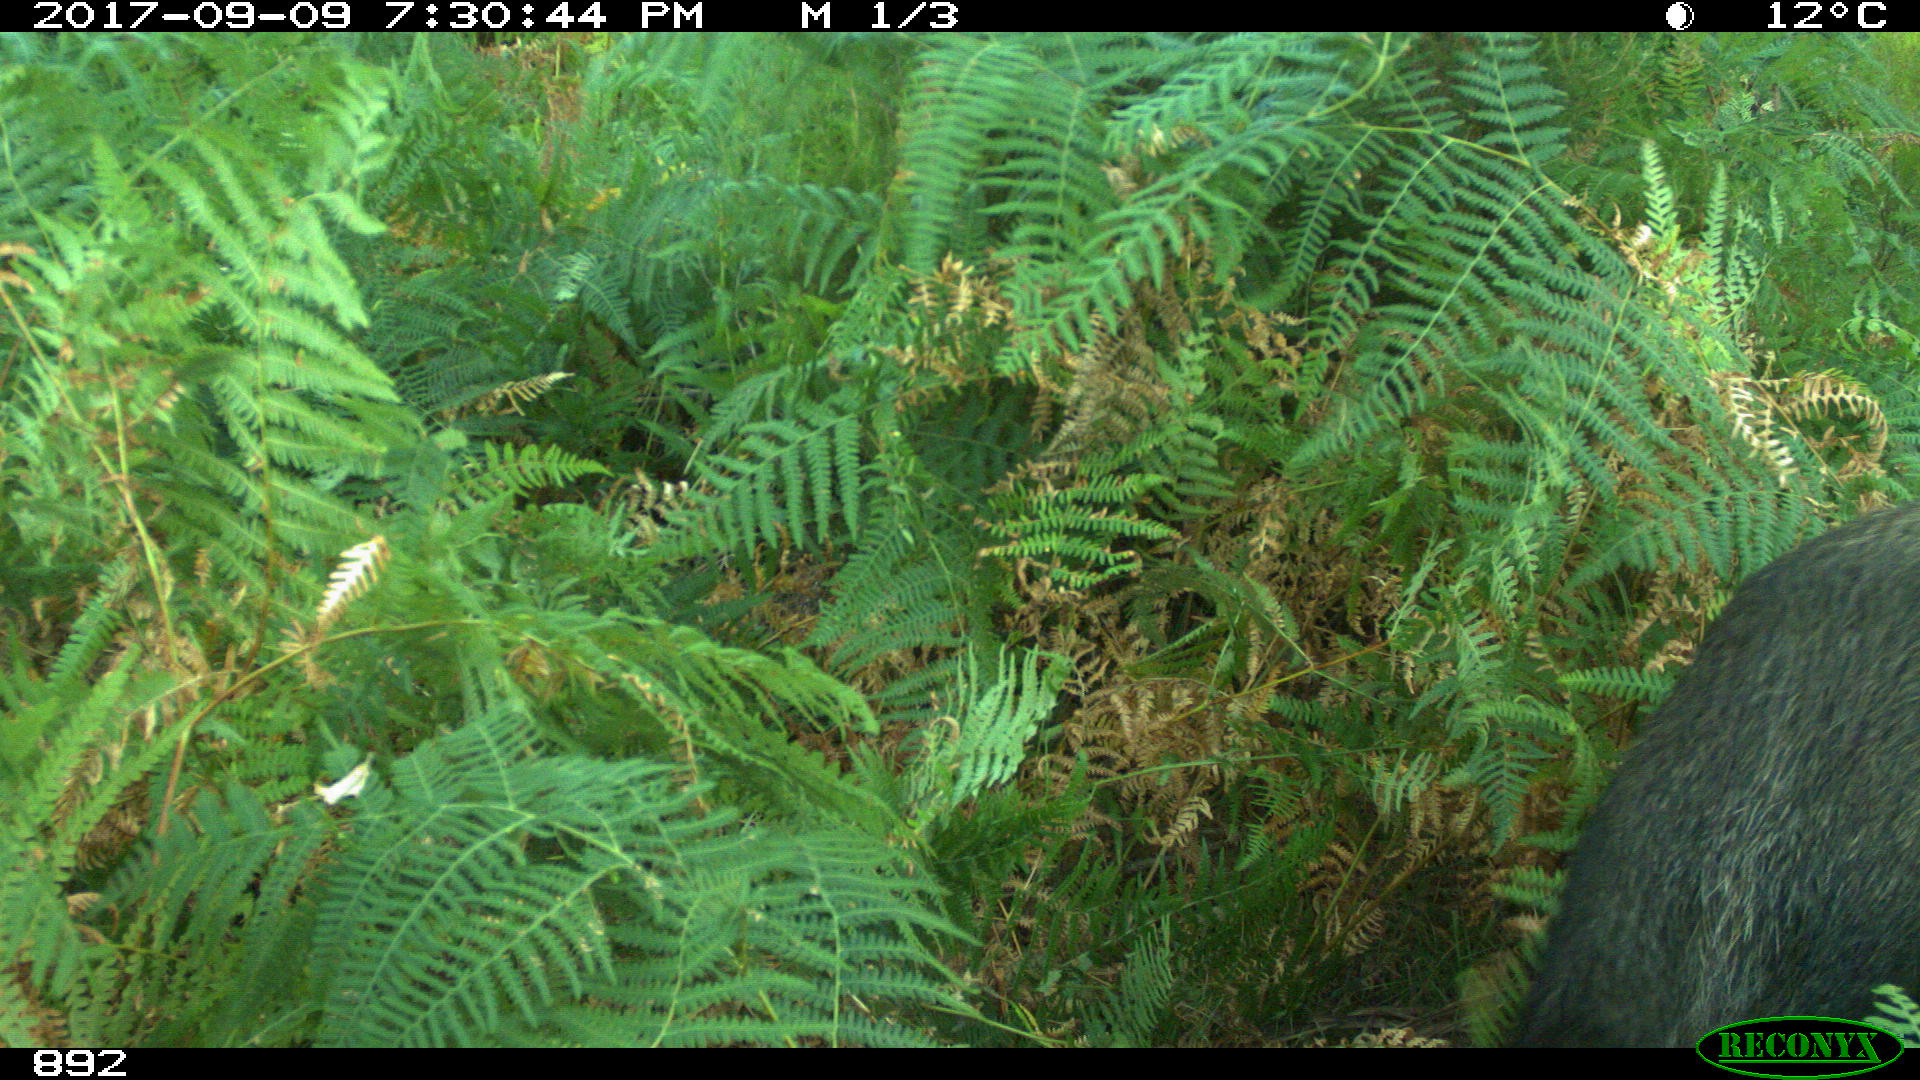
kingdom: Animalia
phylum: Chordata
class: Mammalia
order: Artiodactyla
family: Suidae
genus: Sus
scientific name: Sus scrofa
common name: Wild boar
